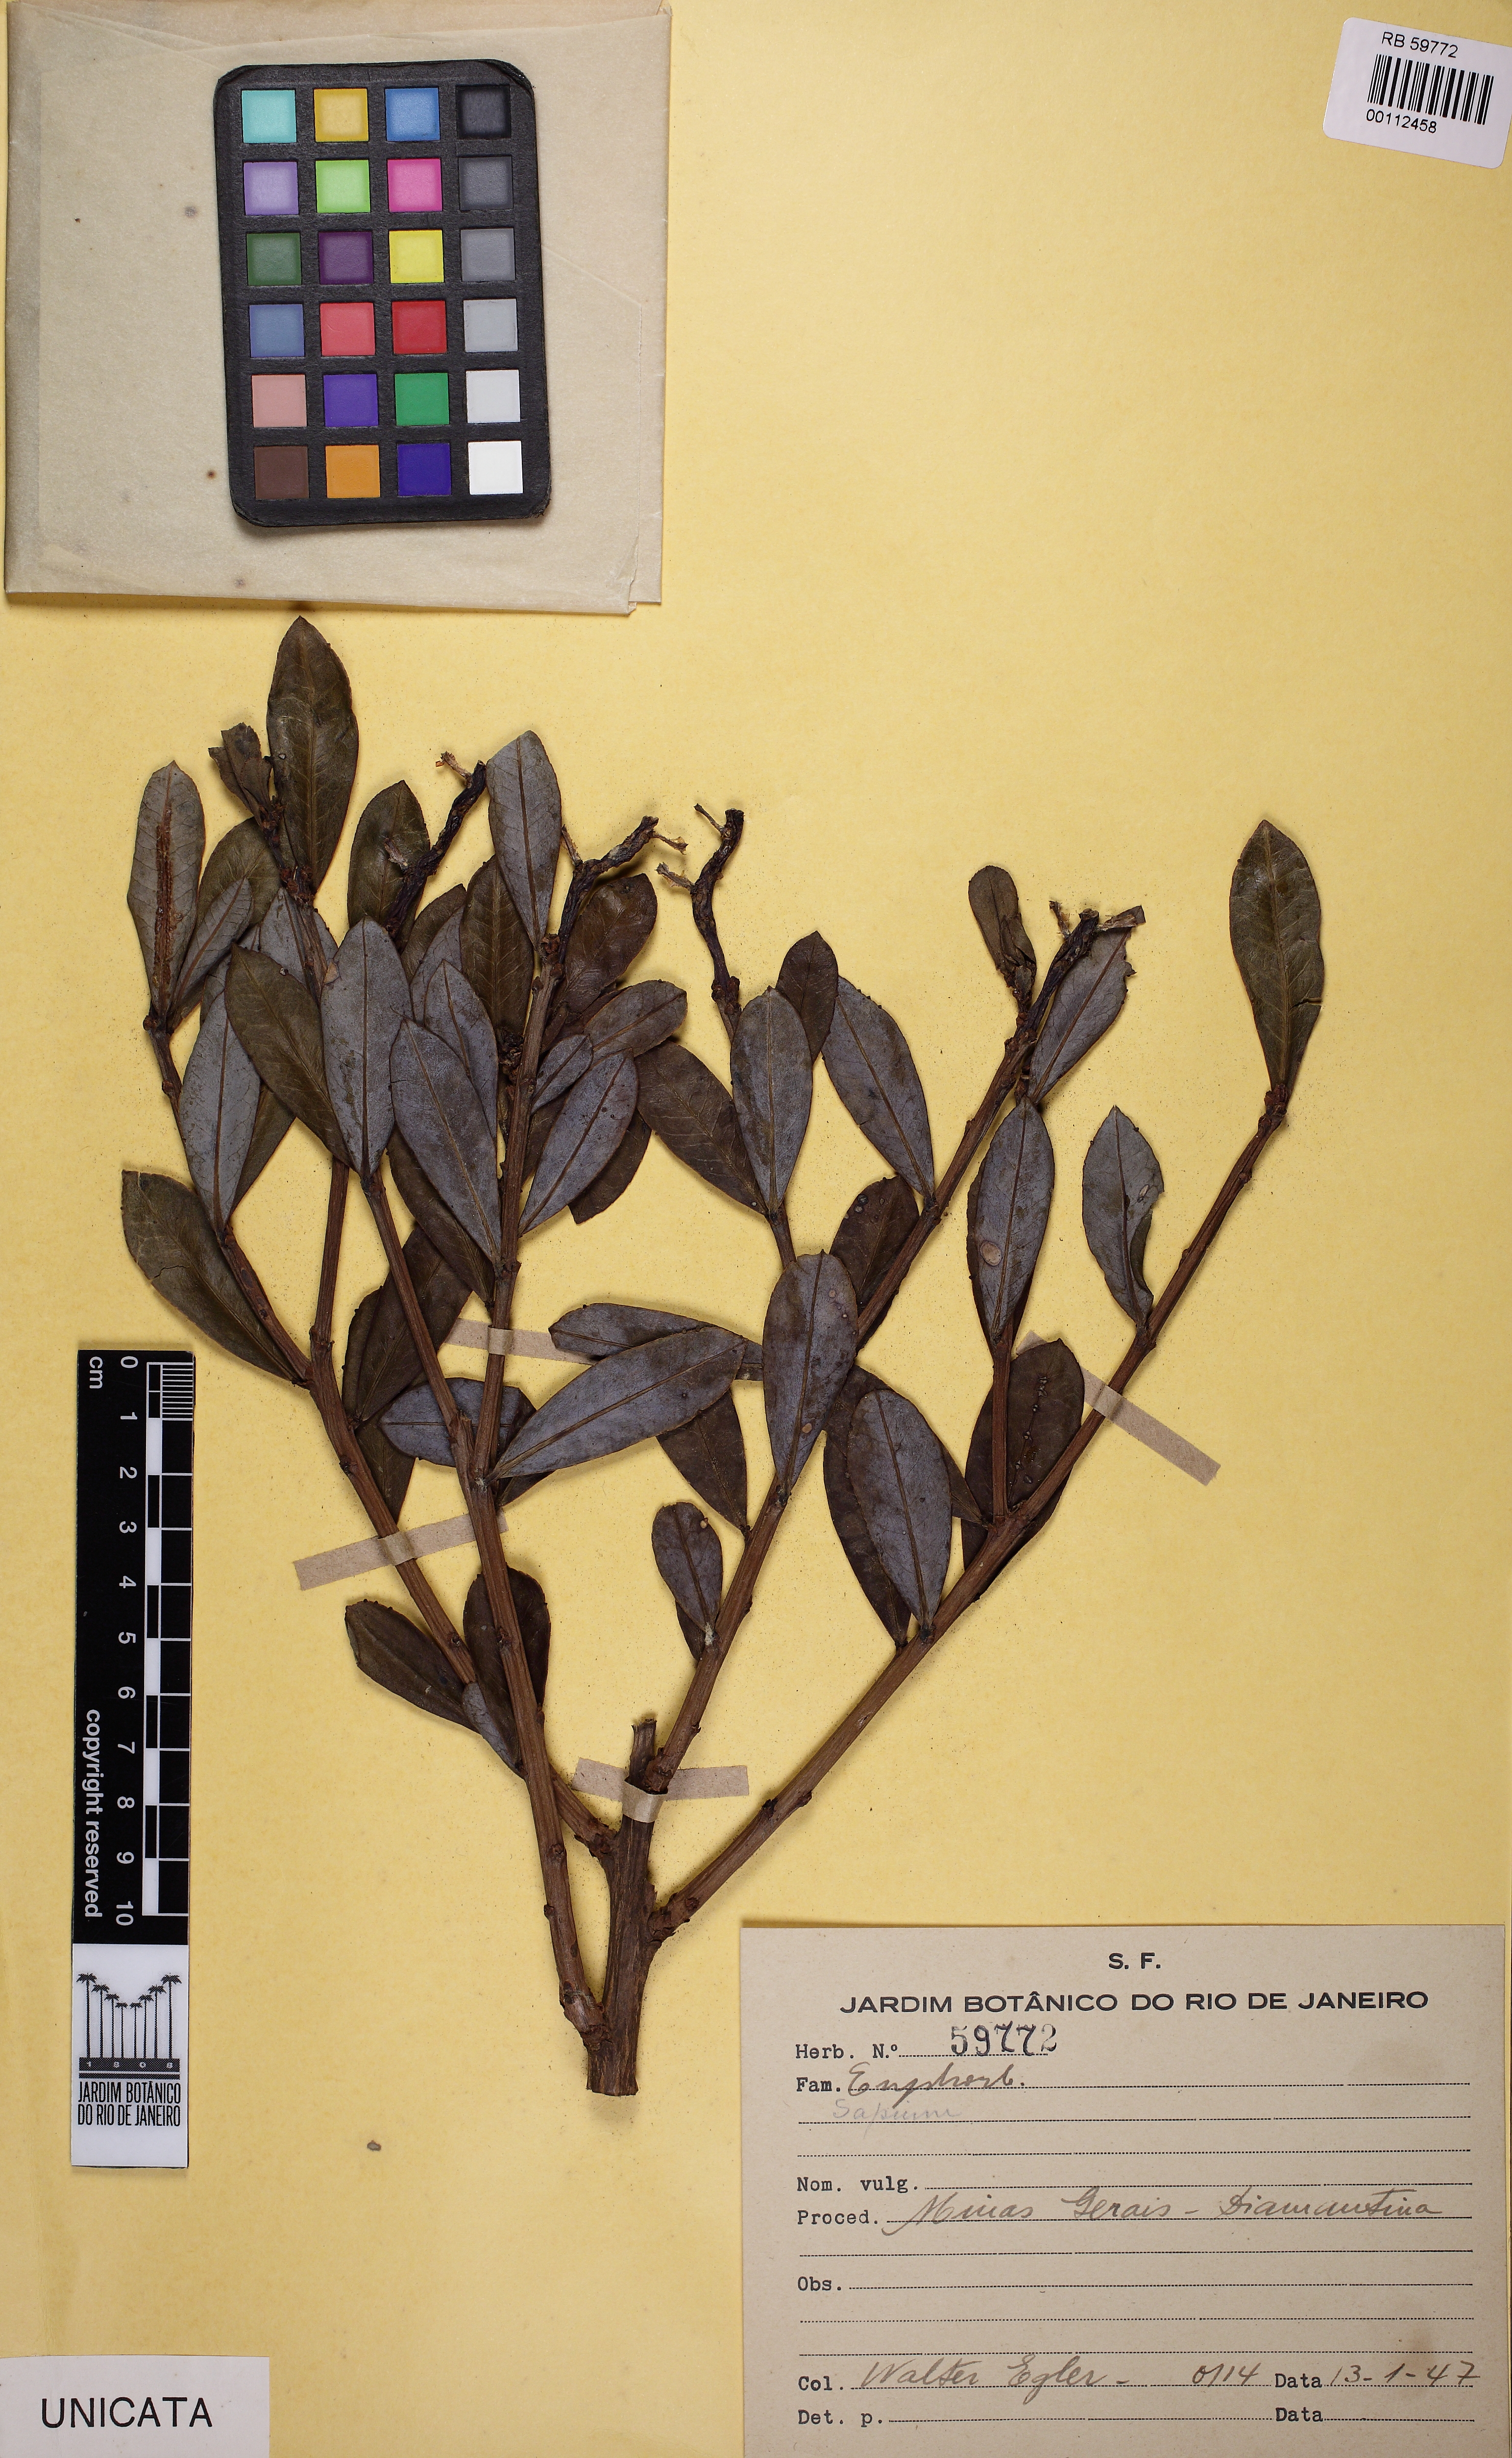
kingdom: Plantae
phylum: Tracheophyta
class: Magnoliopsida
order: Malpighiales
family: Euphorbiaceae
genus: Sapium
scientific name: Sapium
